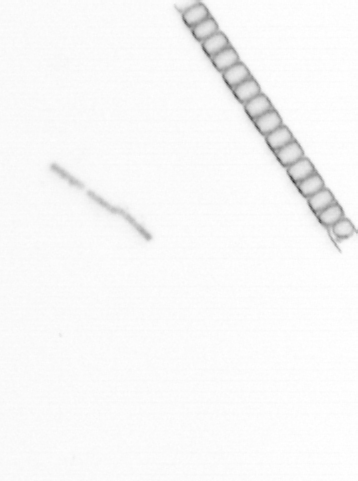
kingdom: Chromista
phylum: Ochrophyta
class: Bacillariophyceae
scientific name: Bacillariophyceae
